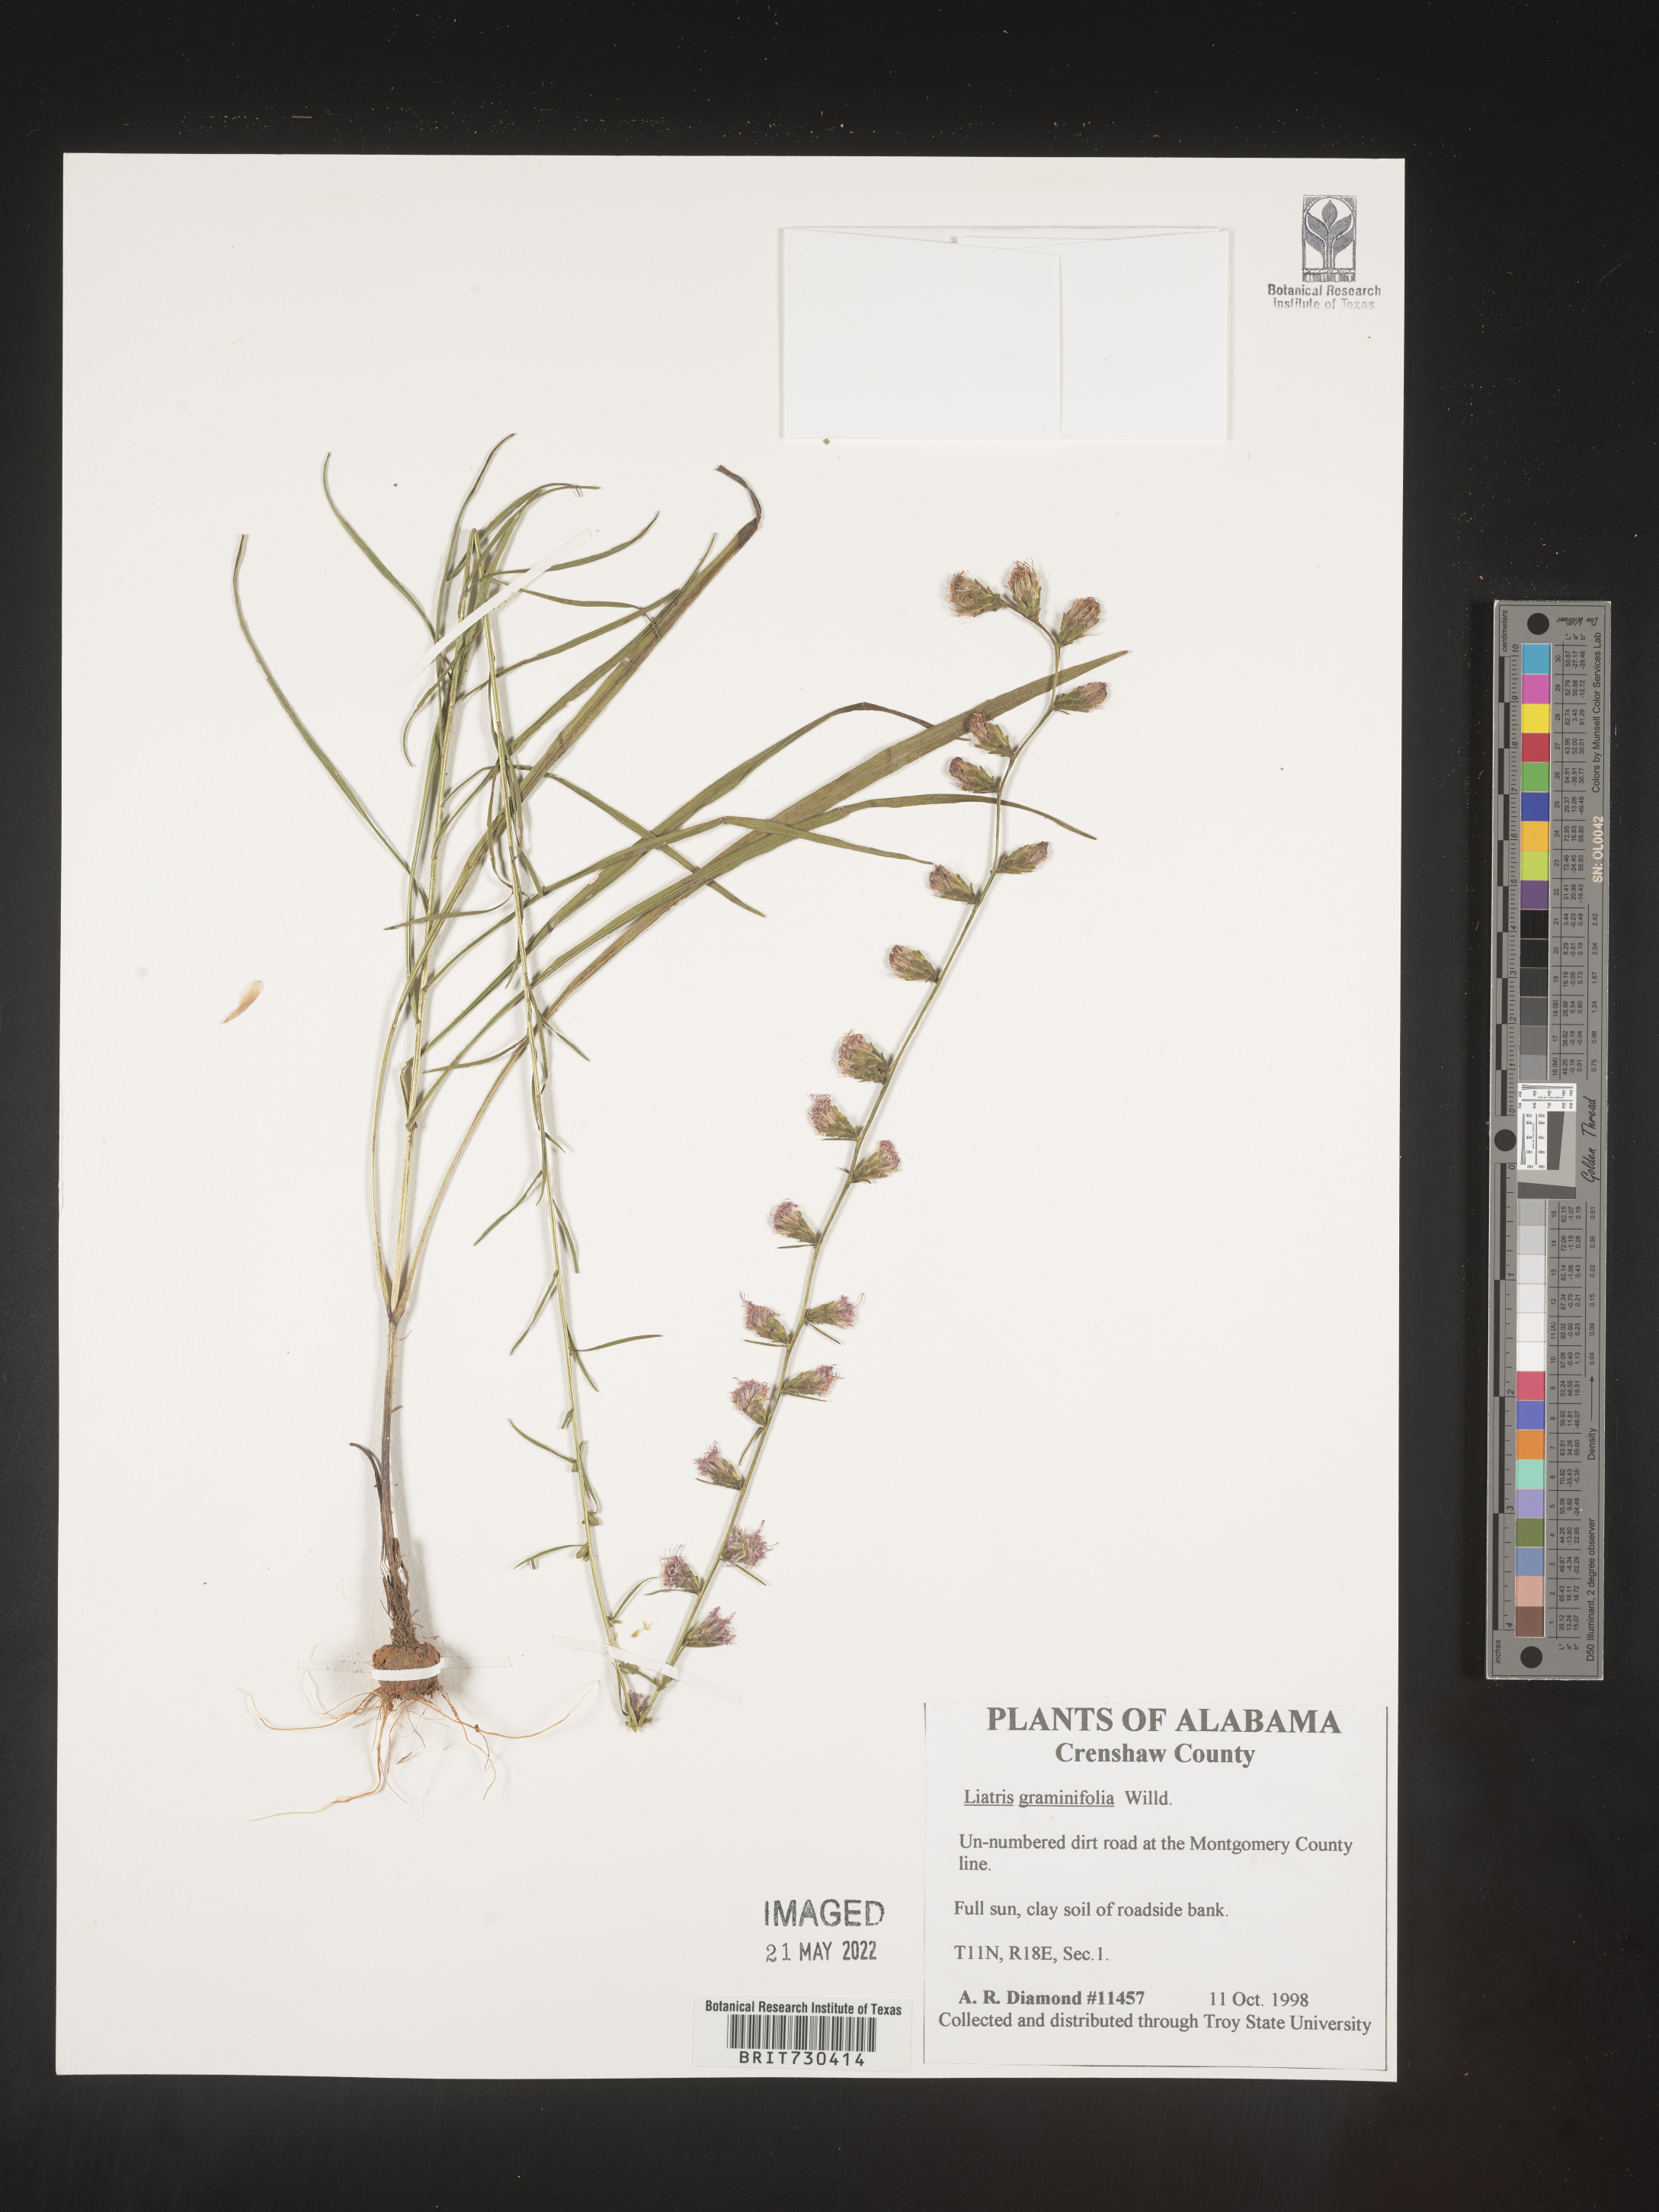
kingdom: Plantae
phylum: Tracheophyta
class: Magnoliopsida
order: Asterales
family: Asteraceae
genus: Liatris
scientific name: Liatris elegantula
